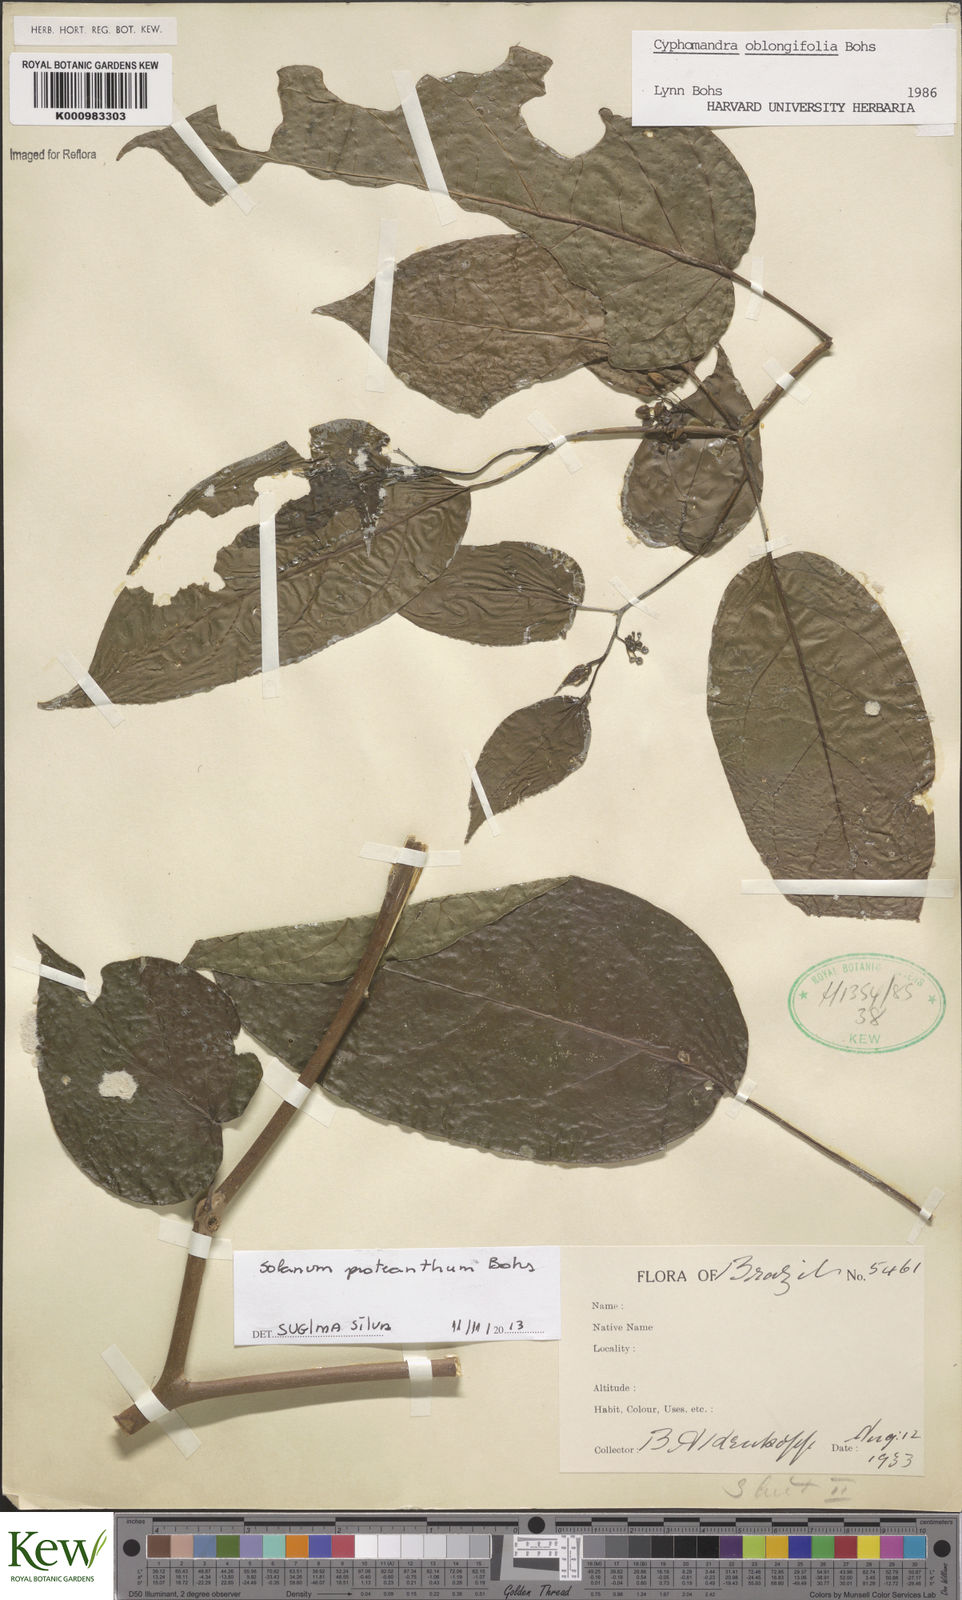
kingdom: Plantae
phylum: Tracheophyta
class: Magnoliopsida
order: Solanales
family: Solanaceae
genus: Solanum
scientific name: Solanum proteanthum
